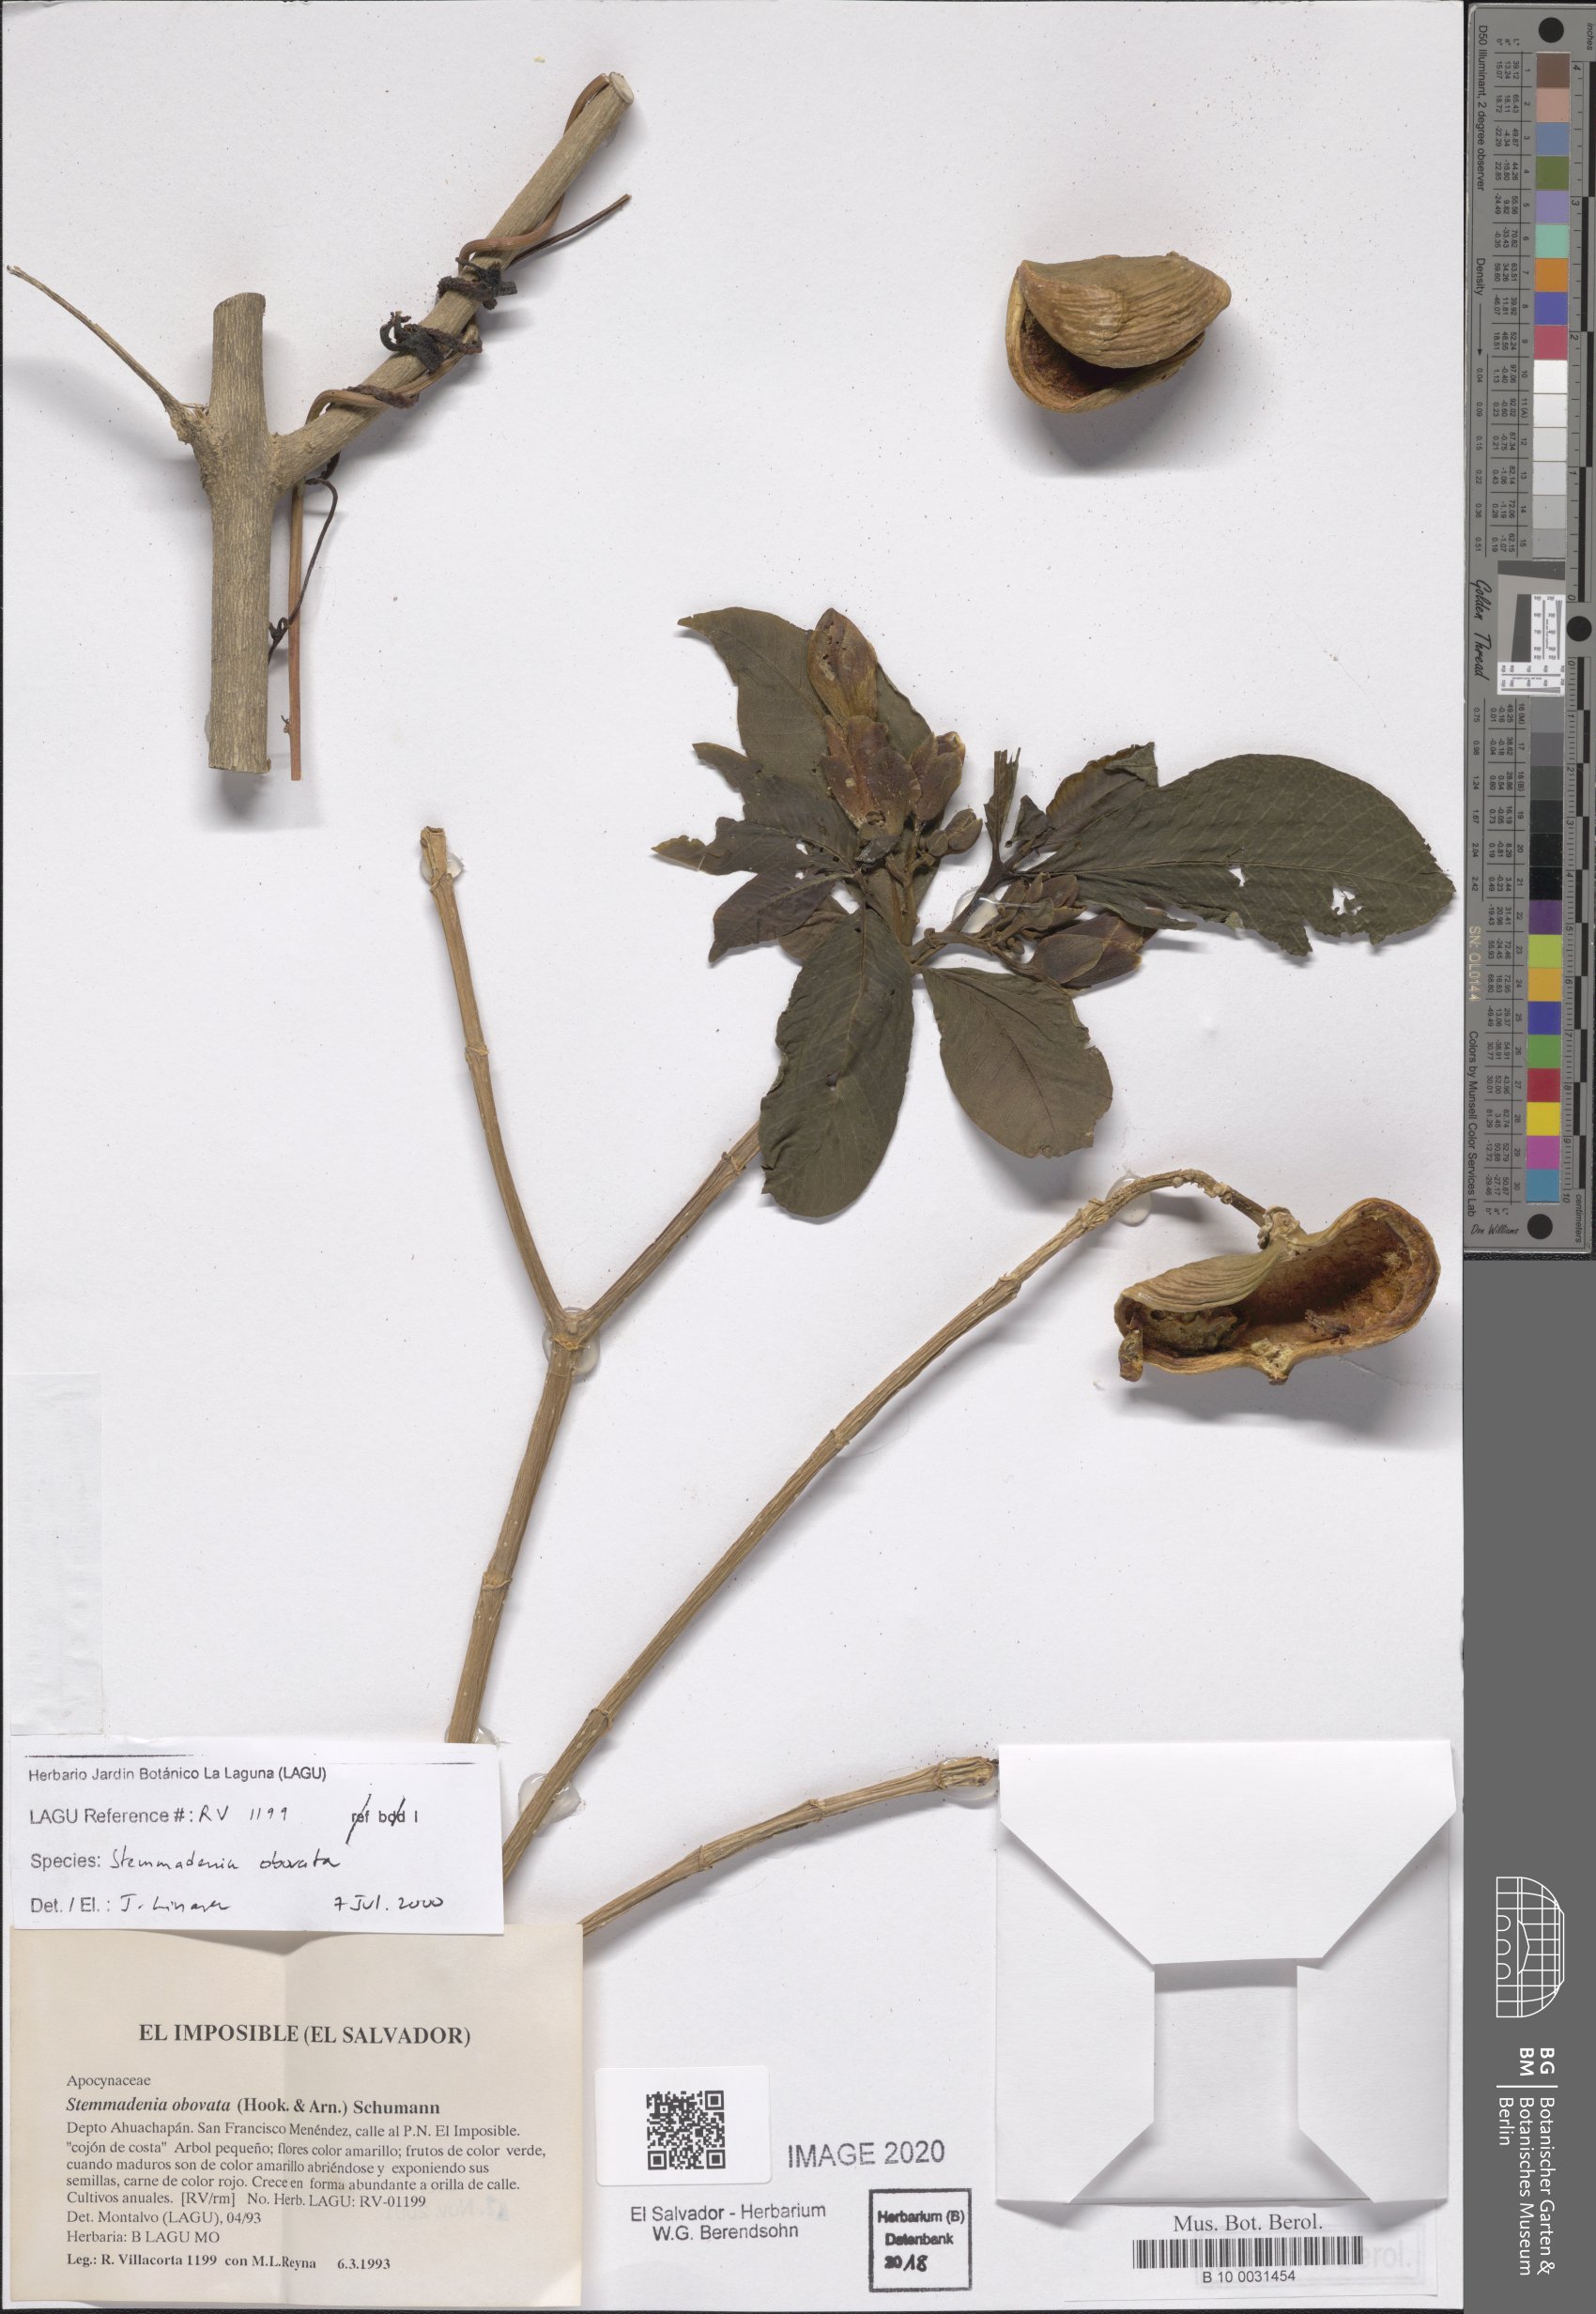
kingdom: Plantae
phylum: Tracheophyta
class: Magnoliopsida
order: Gentianales
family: Apocynaceae
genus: Tabernaemontana
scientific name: Tabernaemontana glabra
